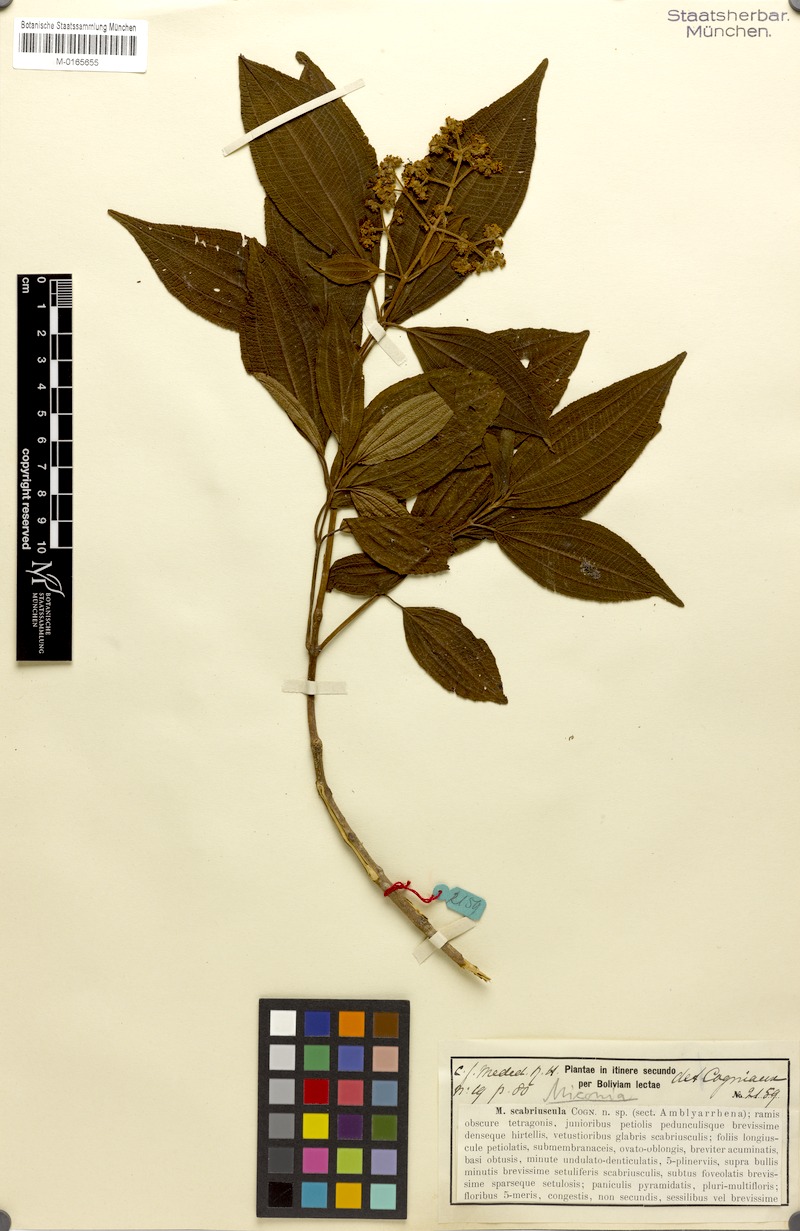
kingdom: Plantae
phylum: Tracheophyta
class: Magnoliopsida
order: Myrtales
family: Melastomataceae
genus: Miconia
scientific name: Miconia lasiocalyx
